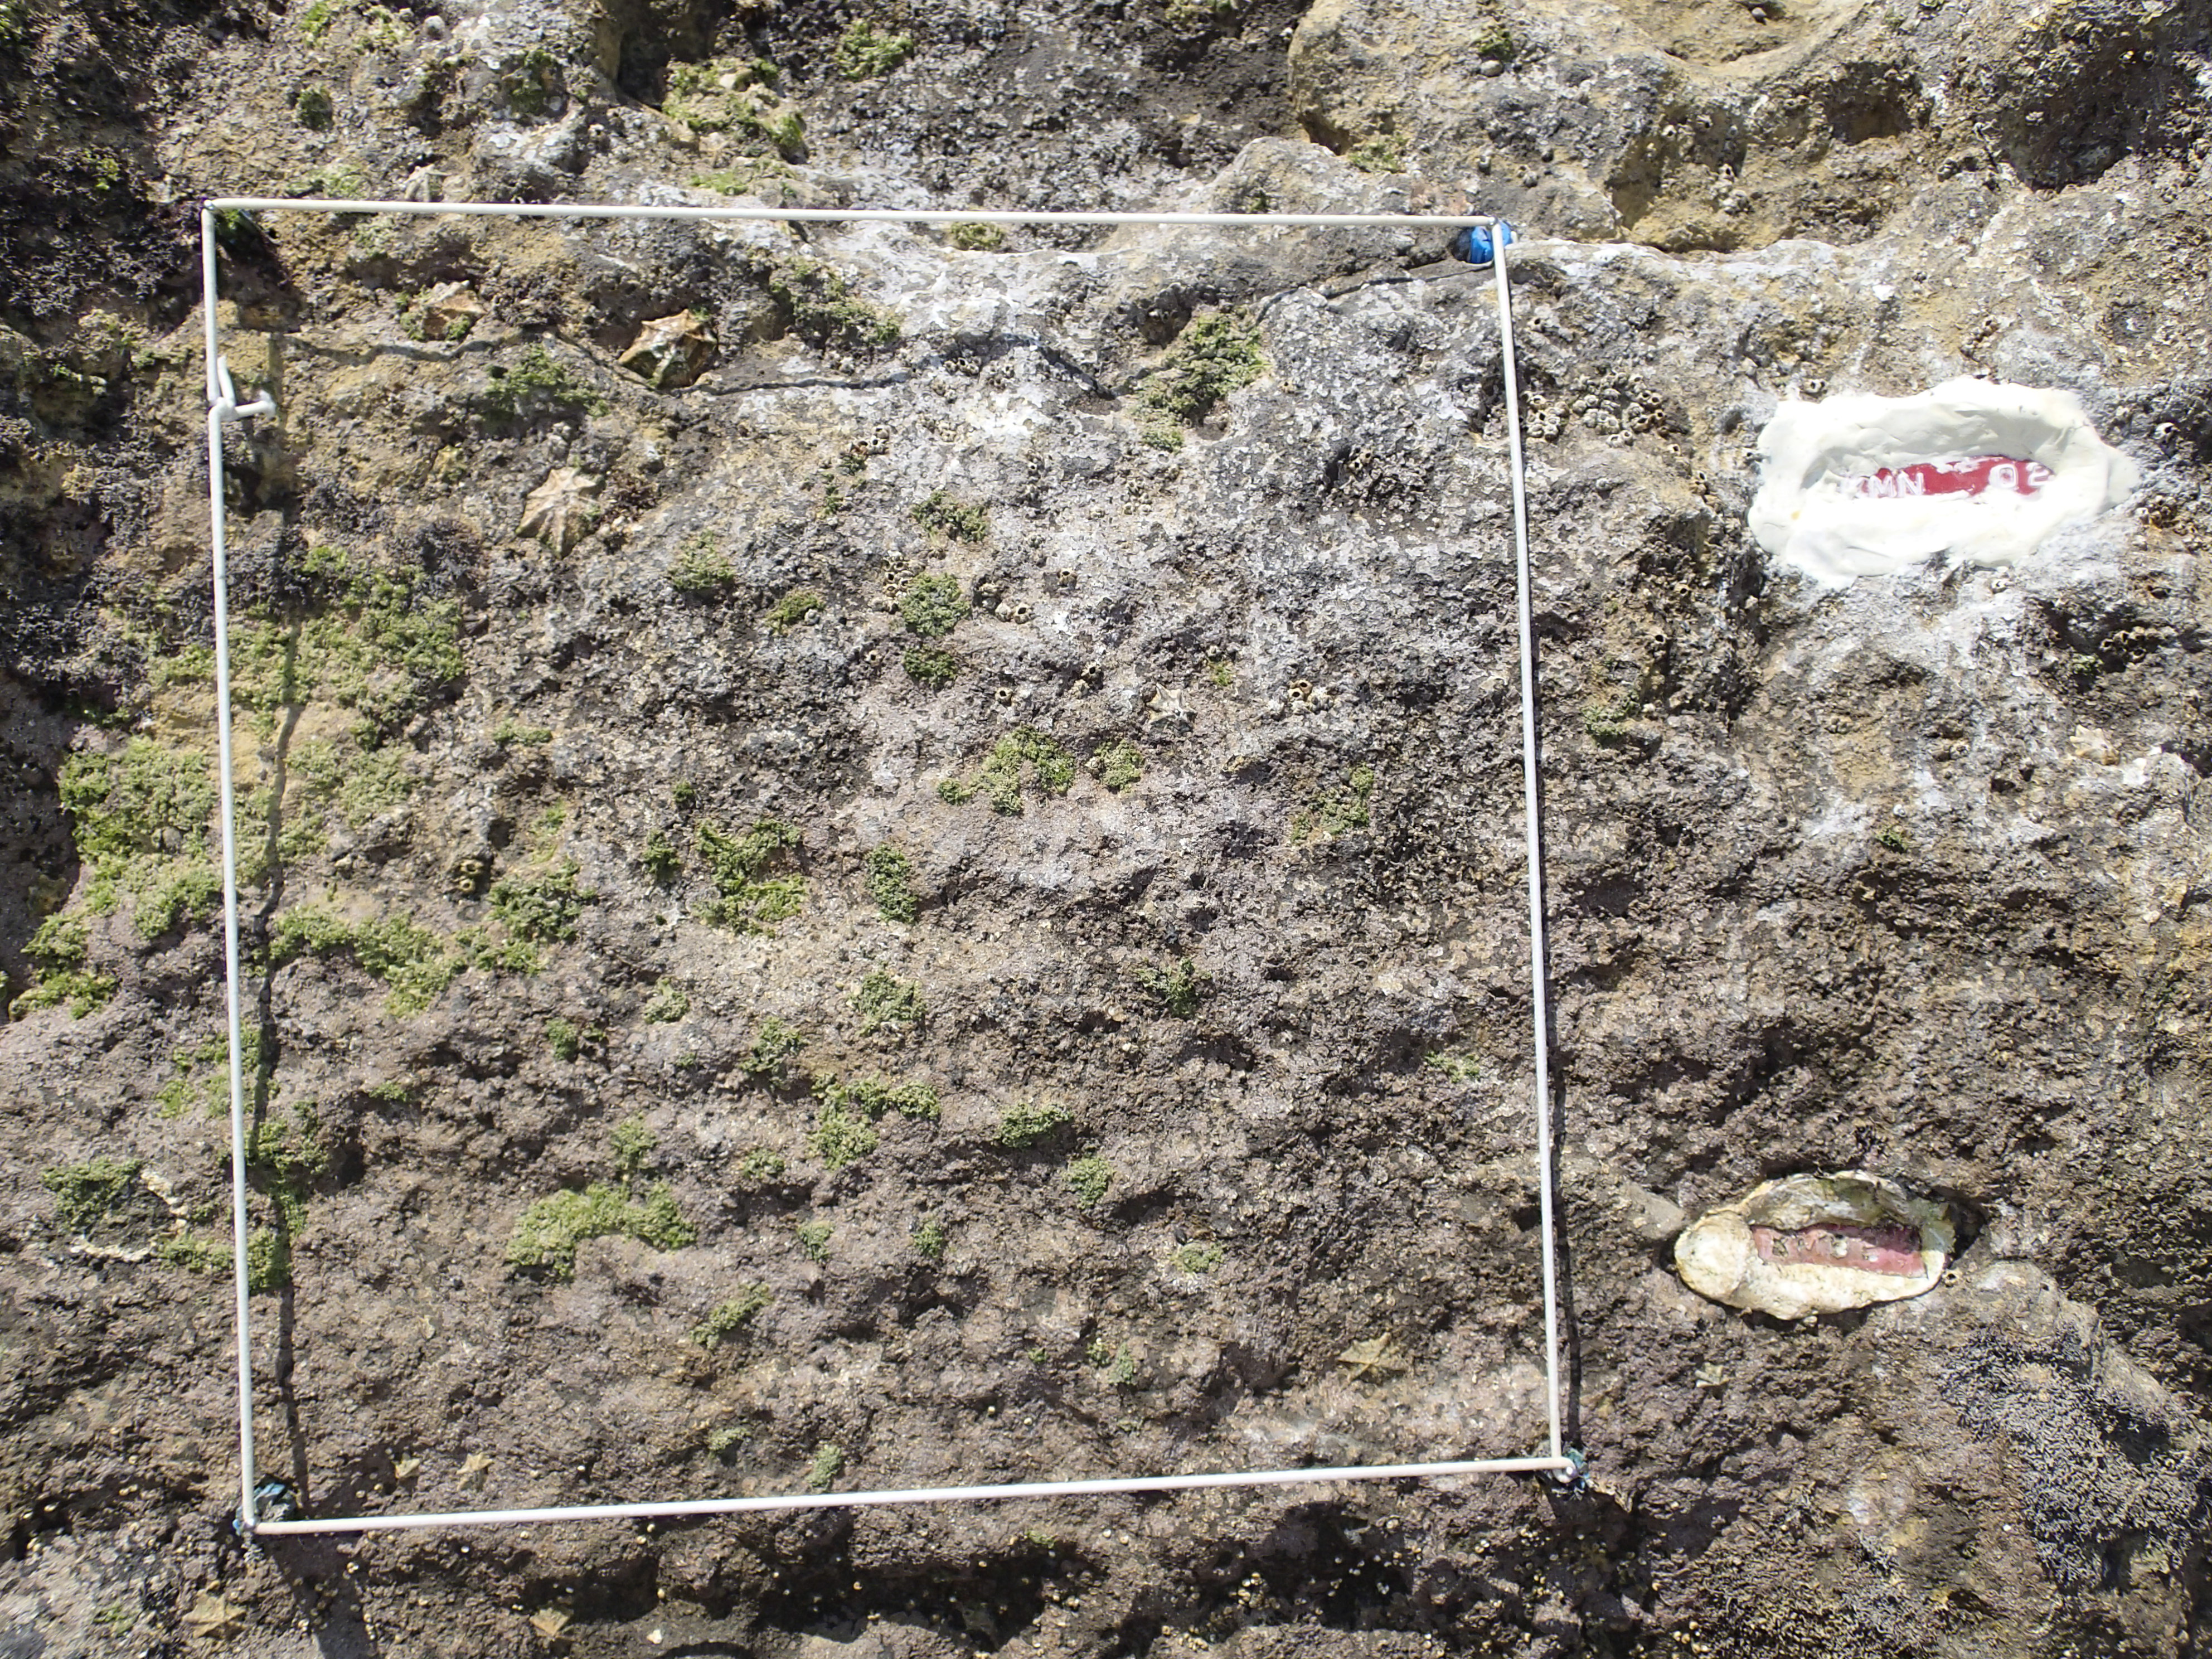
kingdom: Animalia
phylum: Arthropoda
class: Maxillopoda
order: Sessilia
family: Chthamalidae
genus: Chthamalus
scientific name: Chthamalus challengeri
